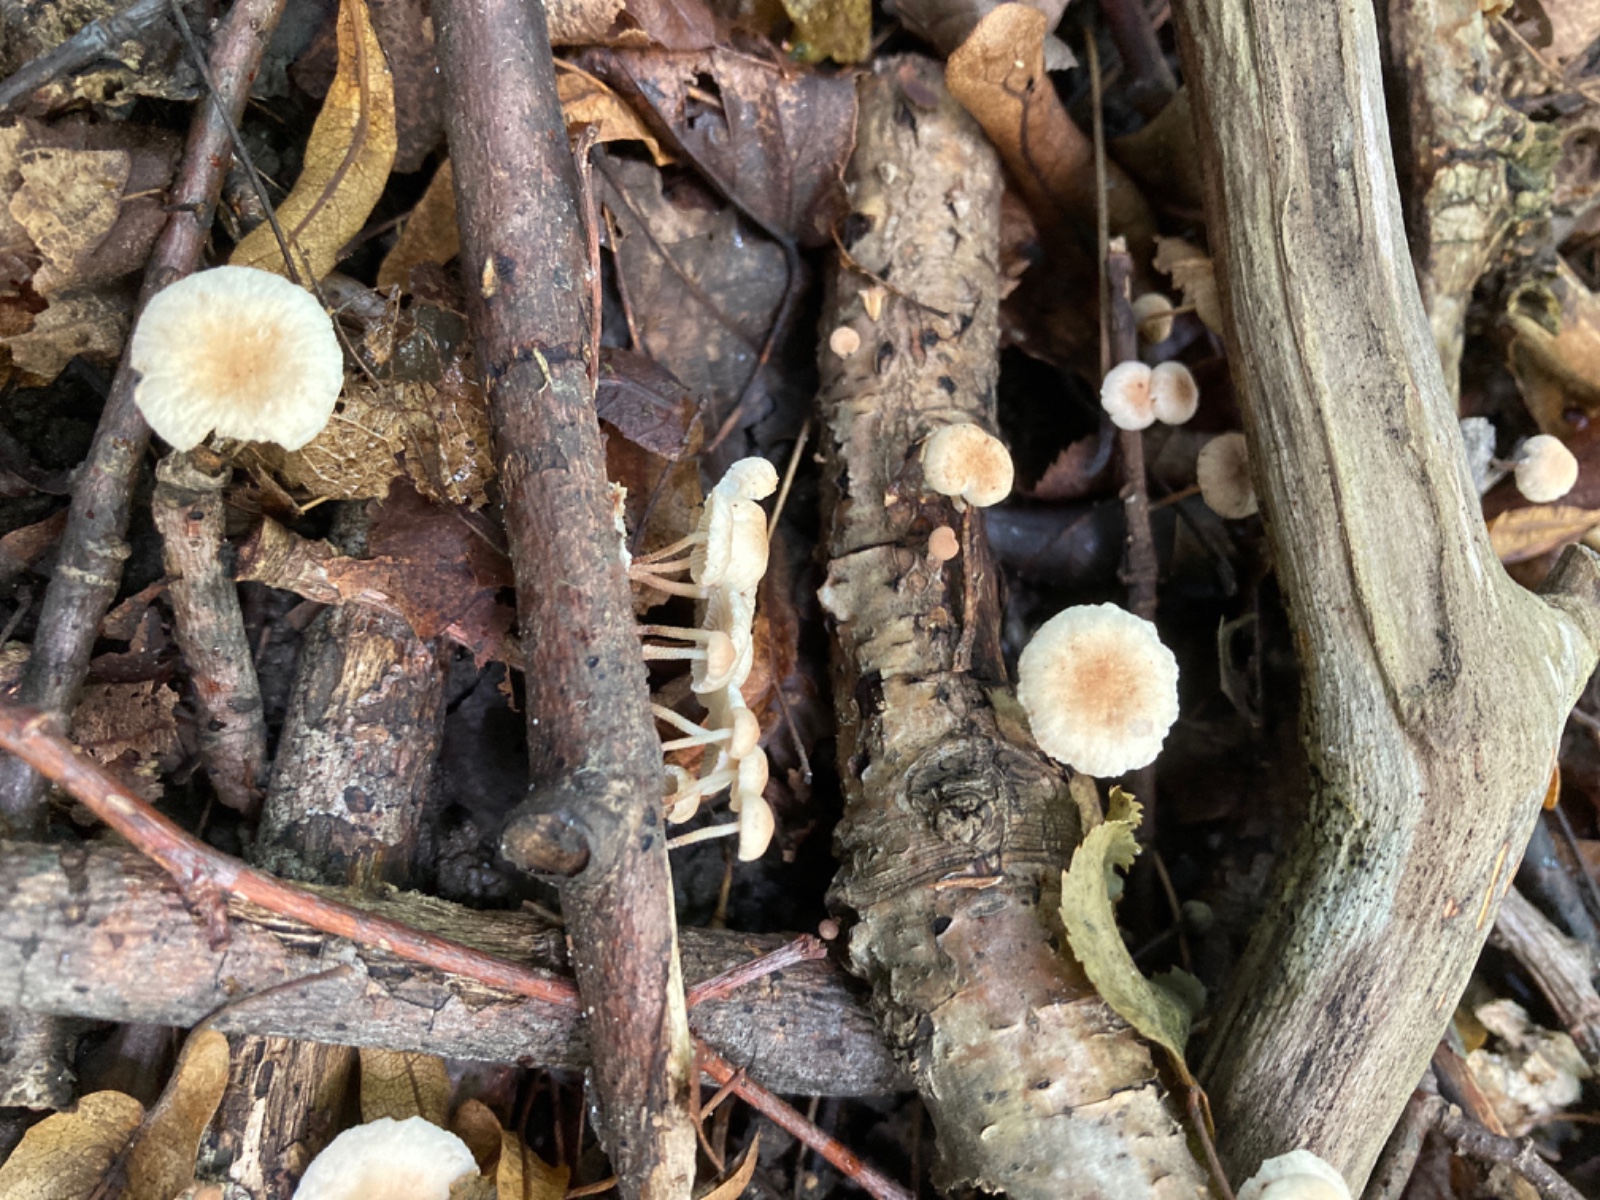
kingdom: Fungi
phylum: Basidiomycota
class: Agaricomycetes
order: Agaricales
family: Omphalotaceae
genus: Collybiopsis
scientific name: Collybiopsis ramealis
